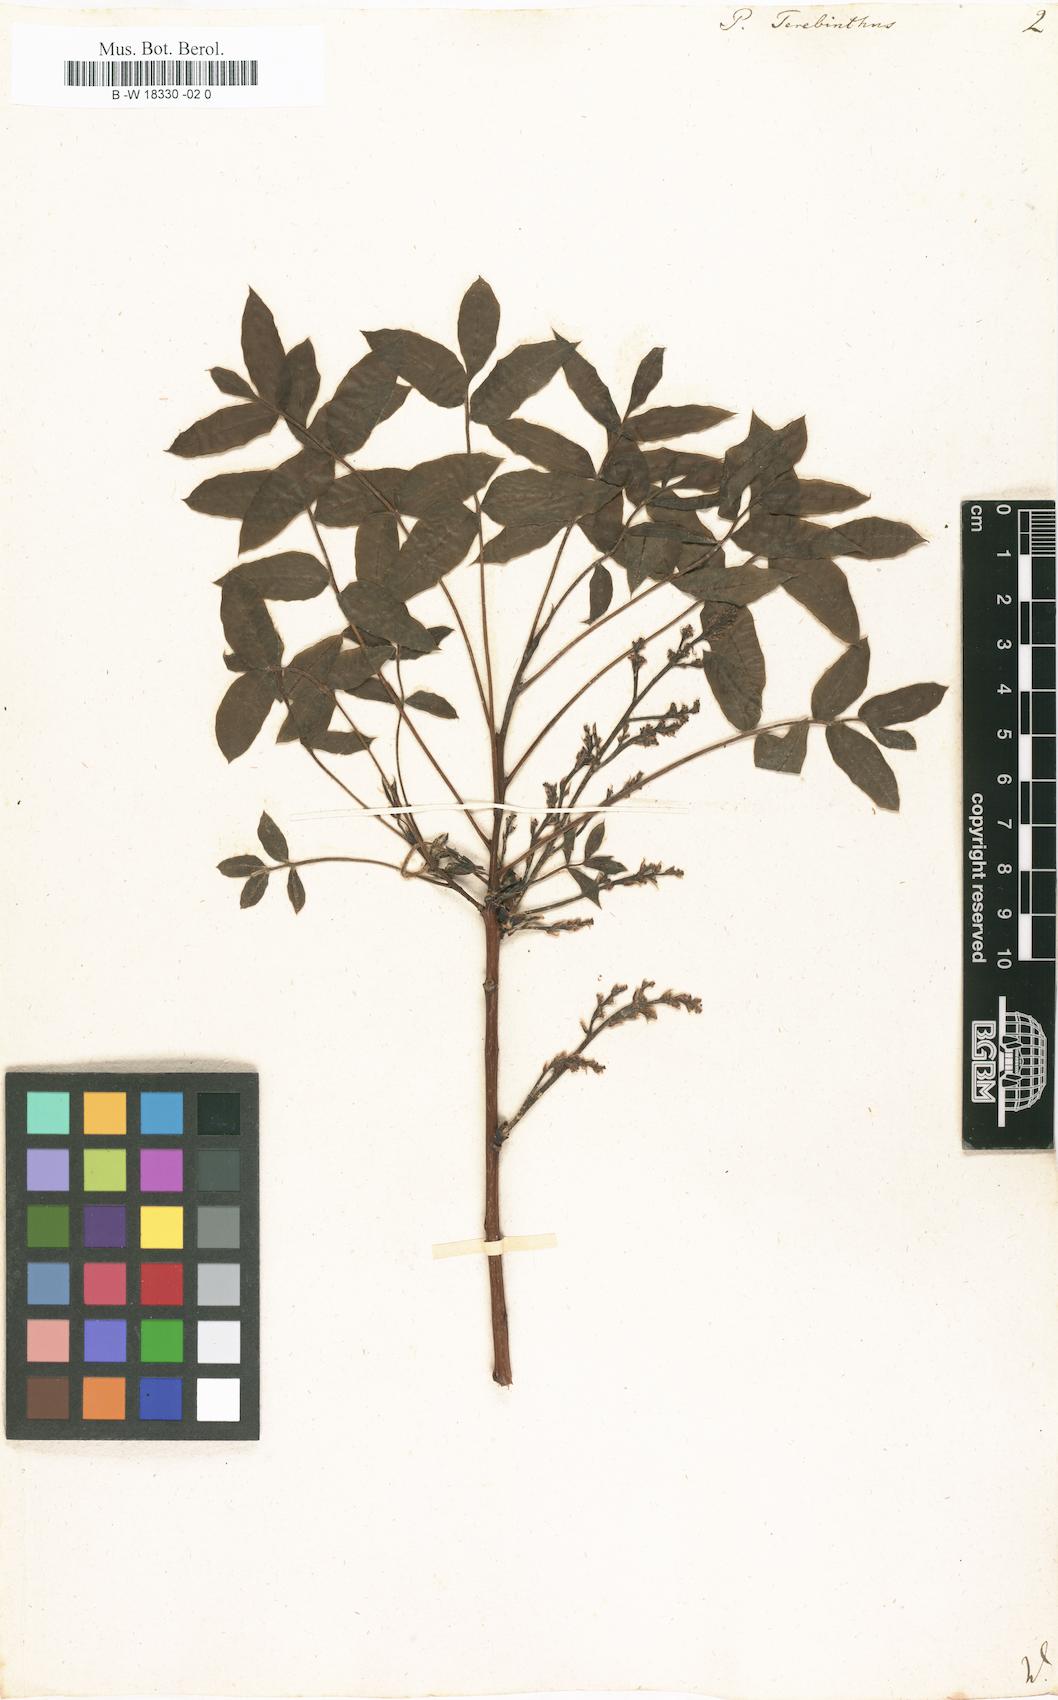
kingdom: Plantae
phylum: Tracheophyta
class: Magnoliopsida
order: Sapindales
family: Anacardiaceae
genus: Pistacia
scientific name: Pistacia terebinthus
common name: Terebinth
